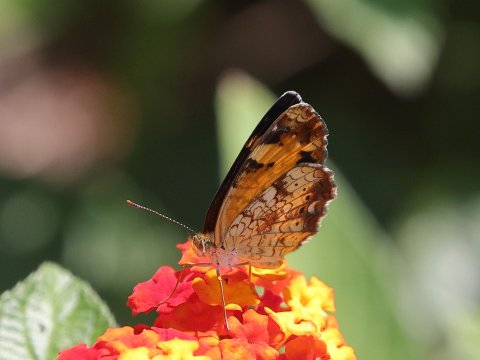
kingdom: Animalia
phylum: Arthropoda
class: Insecta
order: Lepidoptera
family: Nymphalidae
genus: Phyciodes
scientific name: Phyciodes tharos
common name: Pearl Crescent
